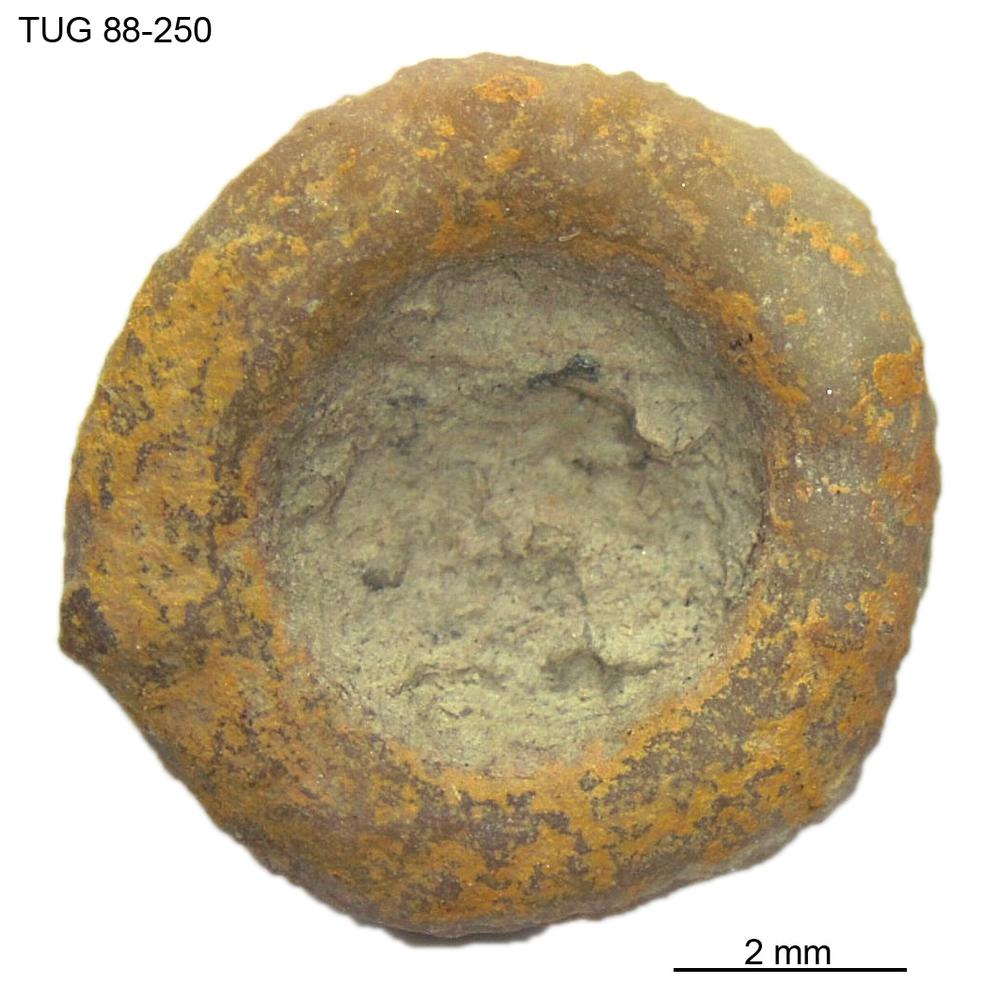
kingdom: Animalia
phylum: Echinodermata
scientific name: Echinodermata
